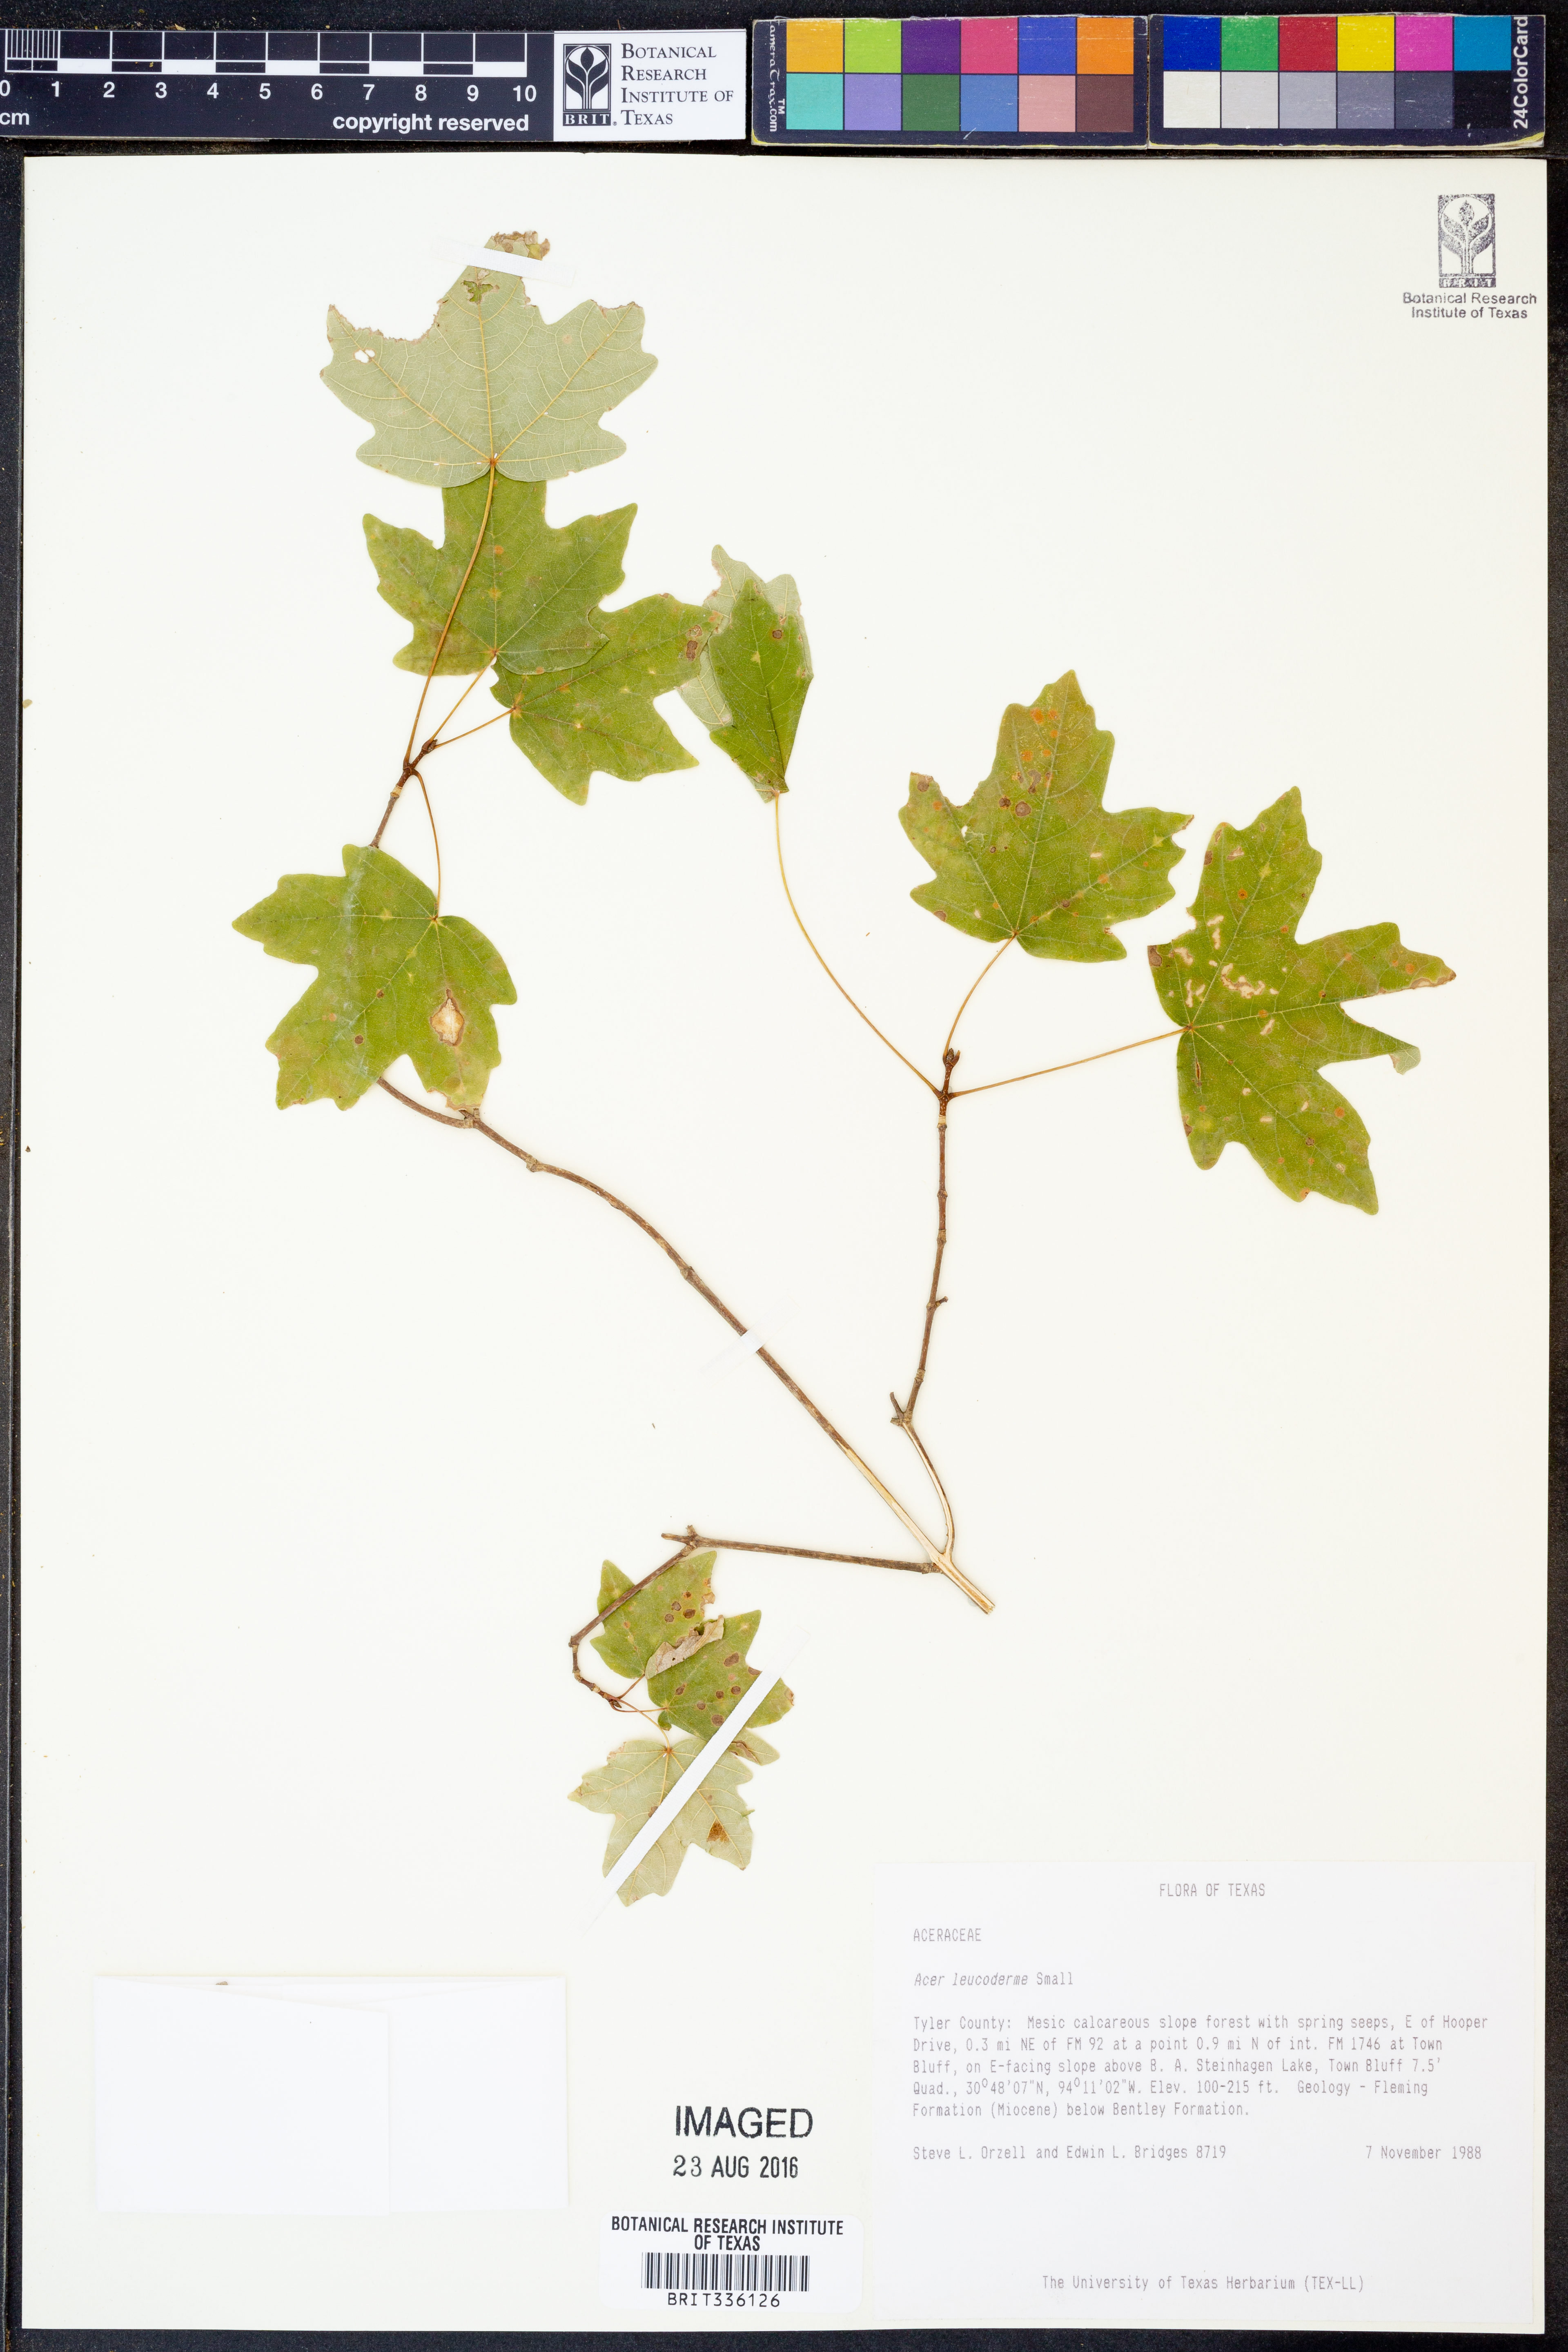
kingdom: Plantae
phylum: Tracheophyta
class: Magnoliopsida
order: Sapindales
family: Sapindaceae
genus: Acer
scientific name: Acer leucoderme
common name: Chalk maple
